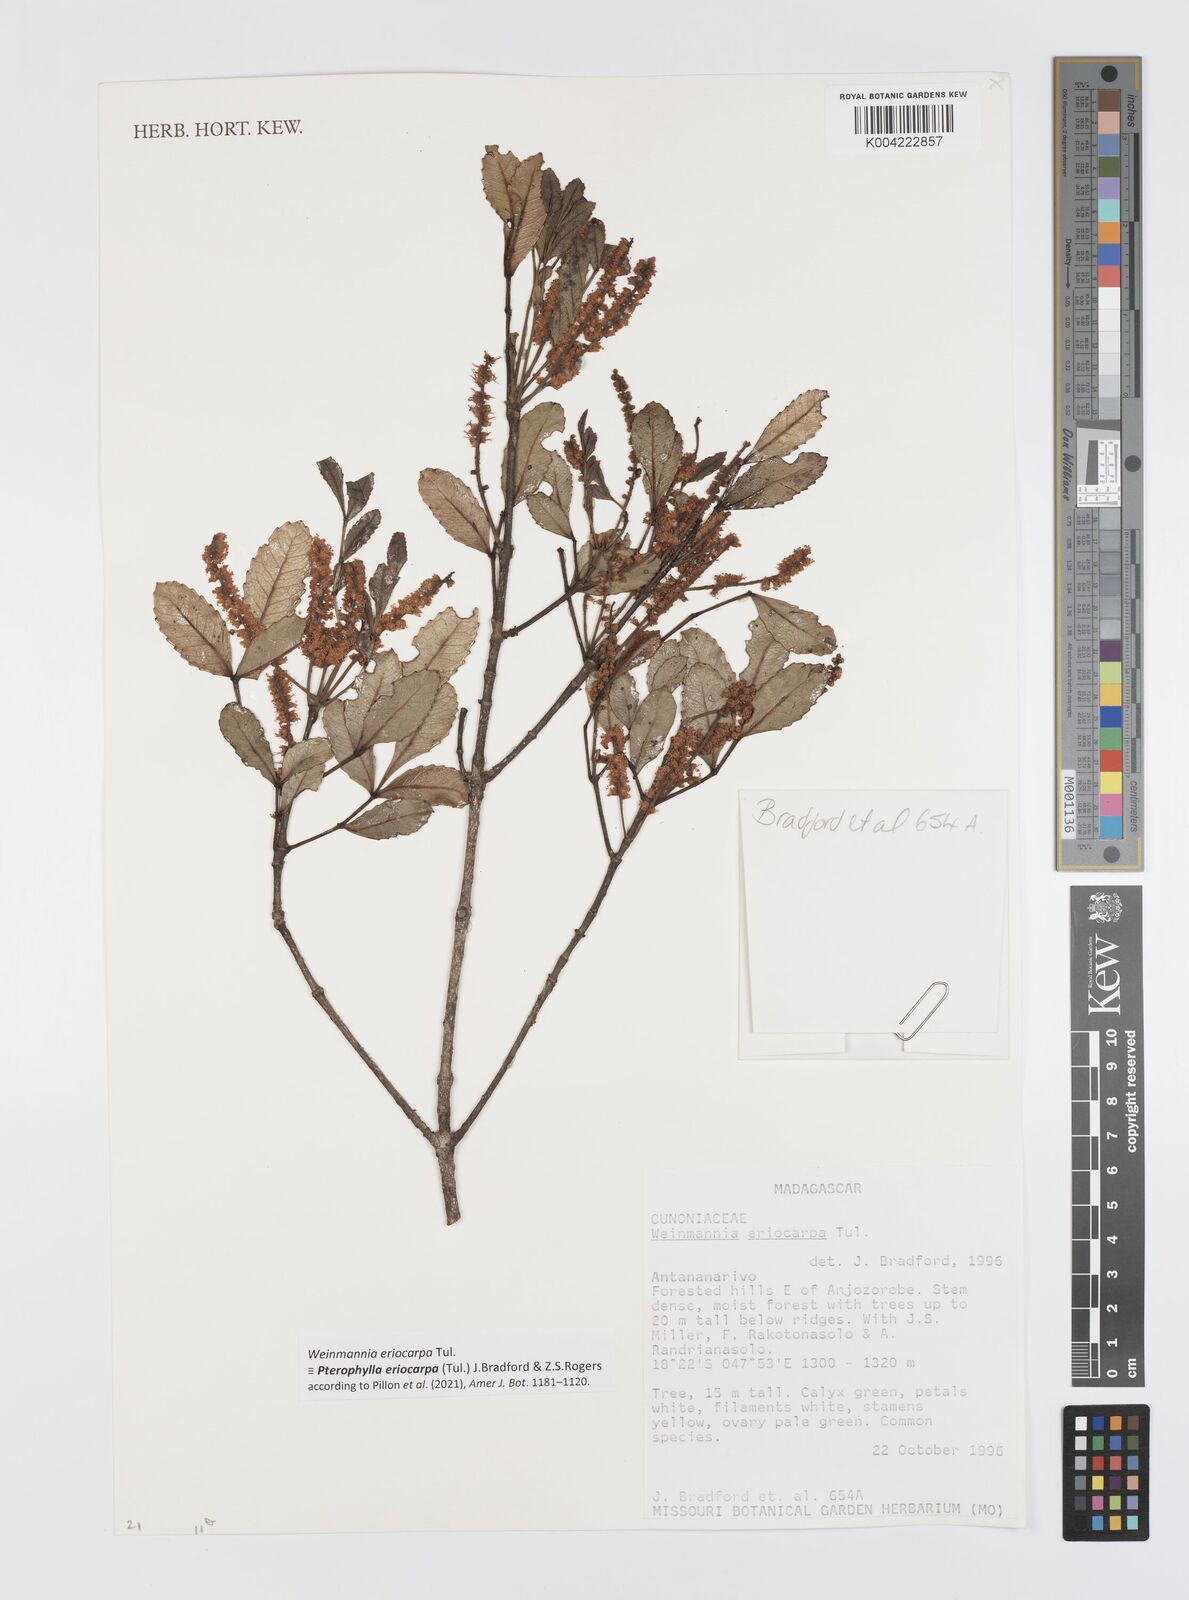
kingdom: Plantae
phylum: Tracheophyta
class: Magnoliopsida
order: Oxalidales
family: Cunoniaceae
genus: Pterophylla
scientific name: Pterophylla eriocarpa
